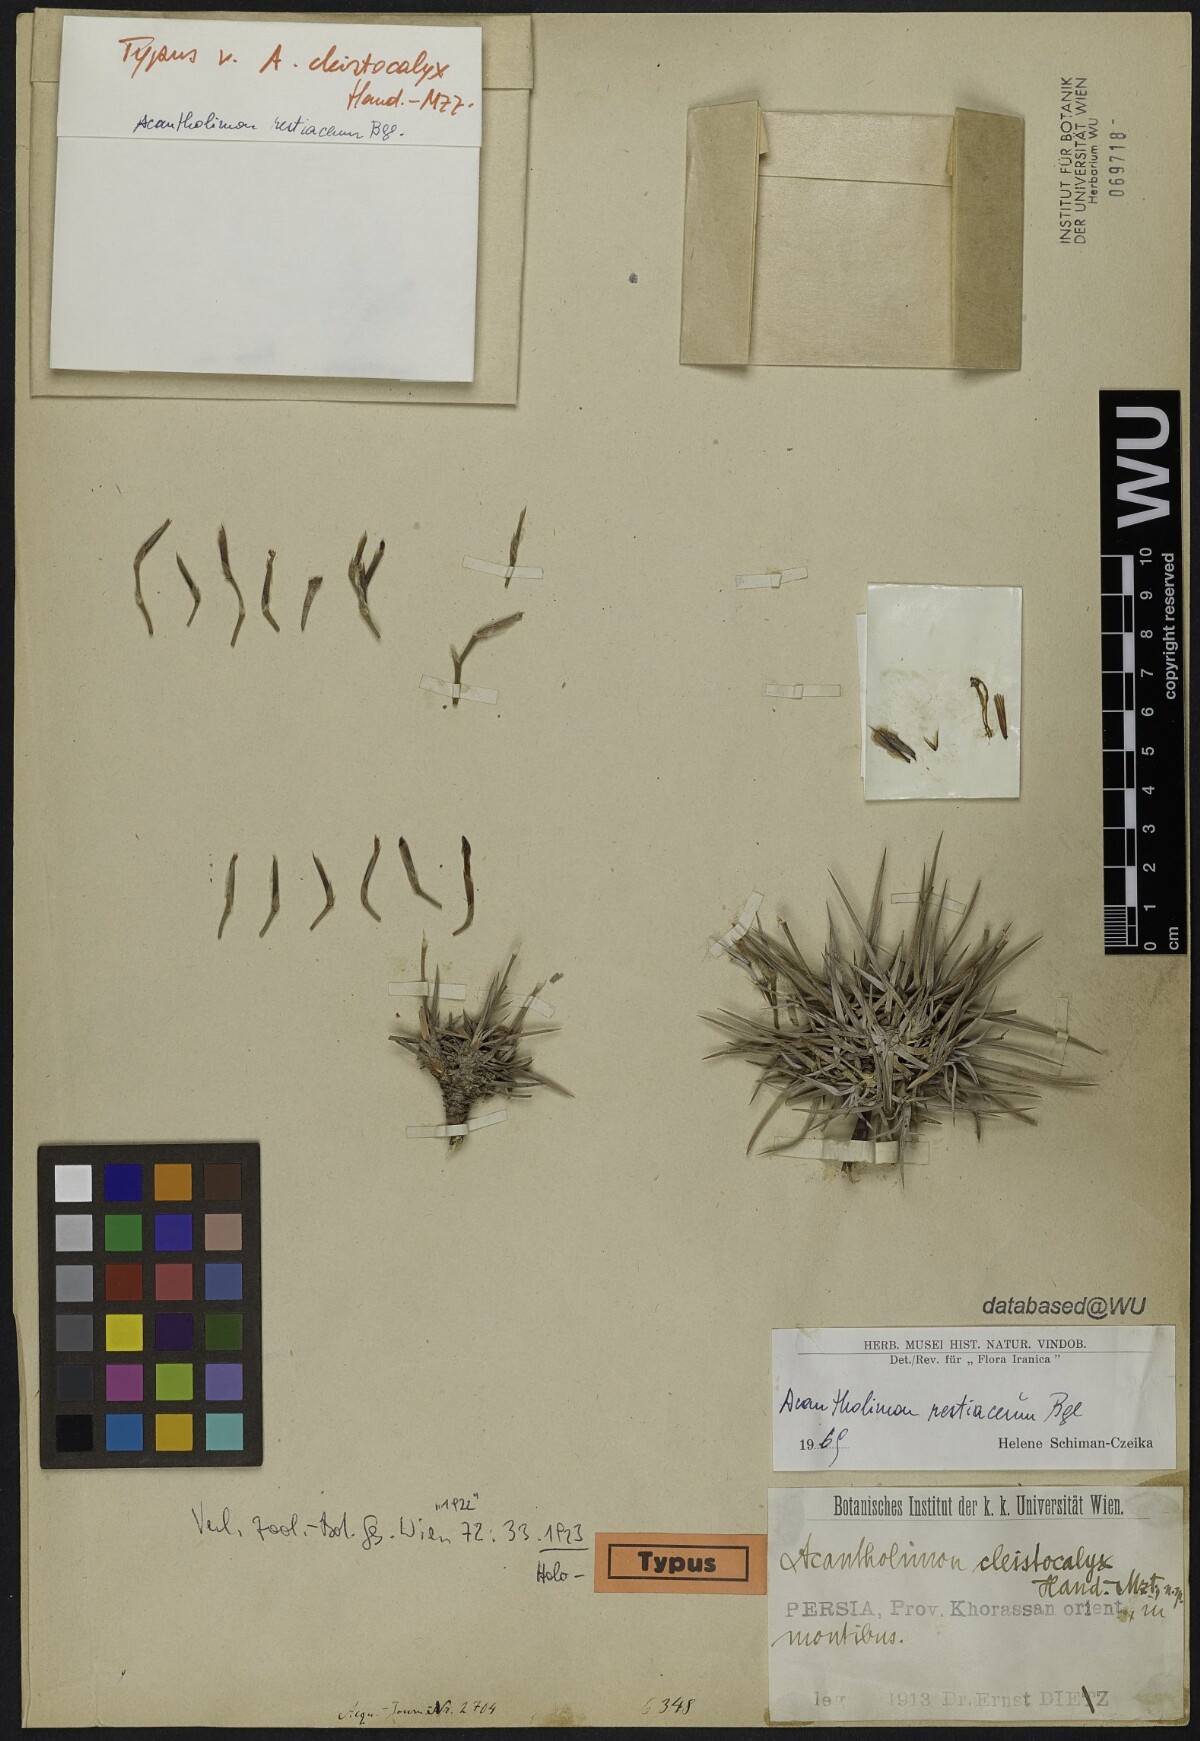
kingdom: Plantae
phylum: Tracheophyta
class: Magnoliopsida
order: Caryophyllales
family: Plumbaginaceae
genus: Acantholimon
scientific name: Acantholimon cleistocalyx
